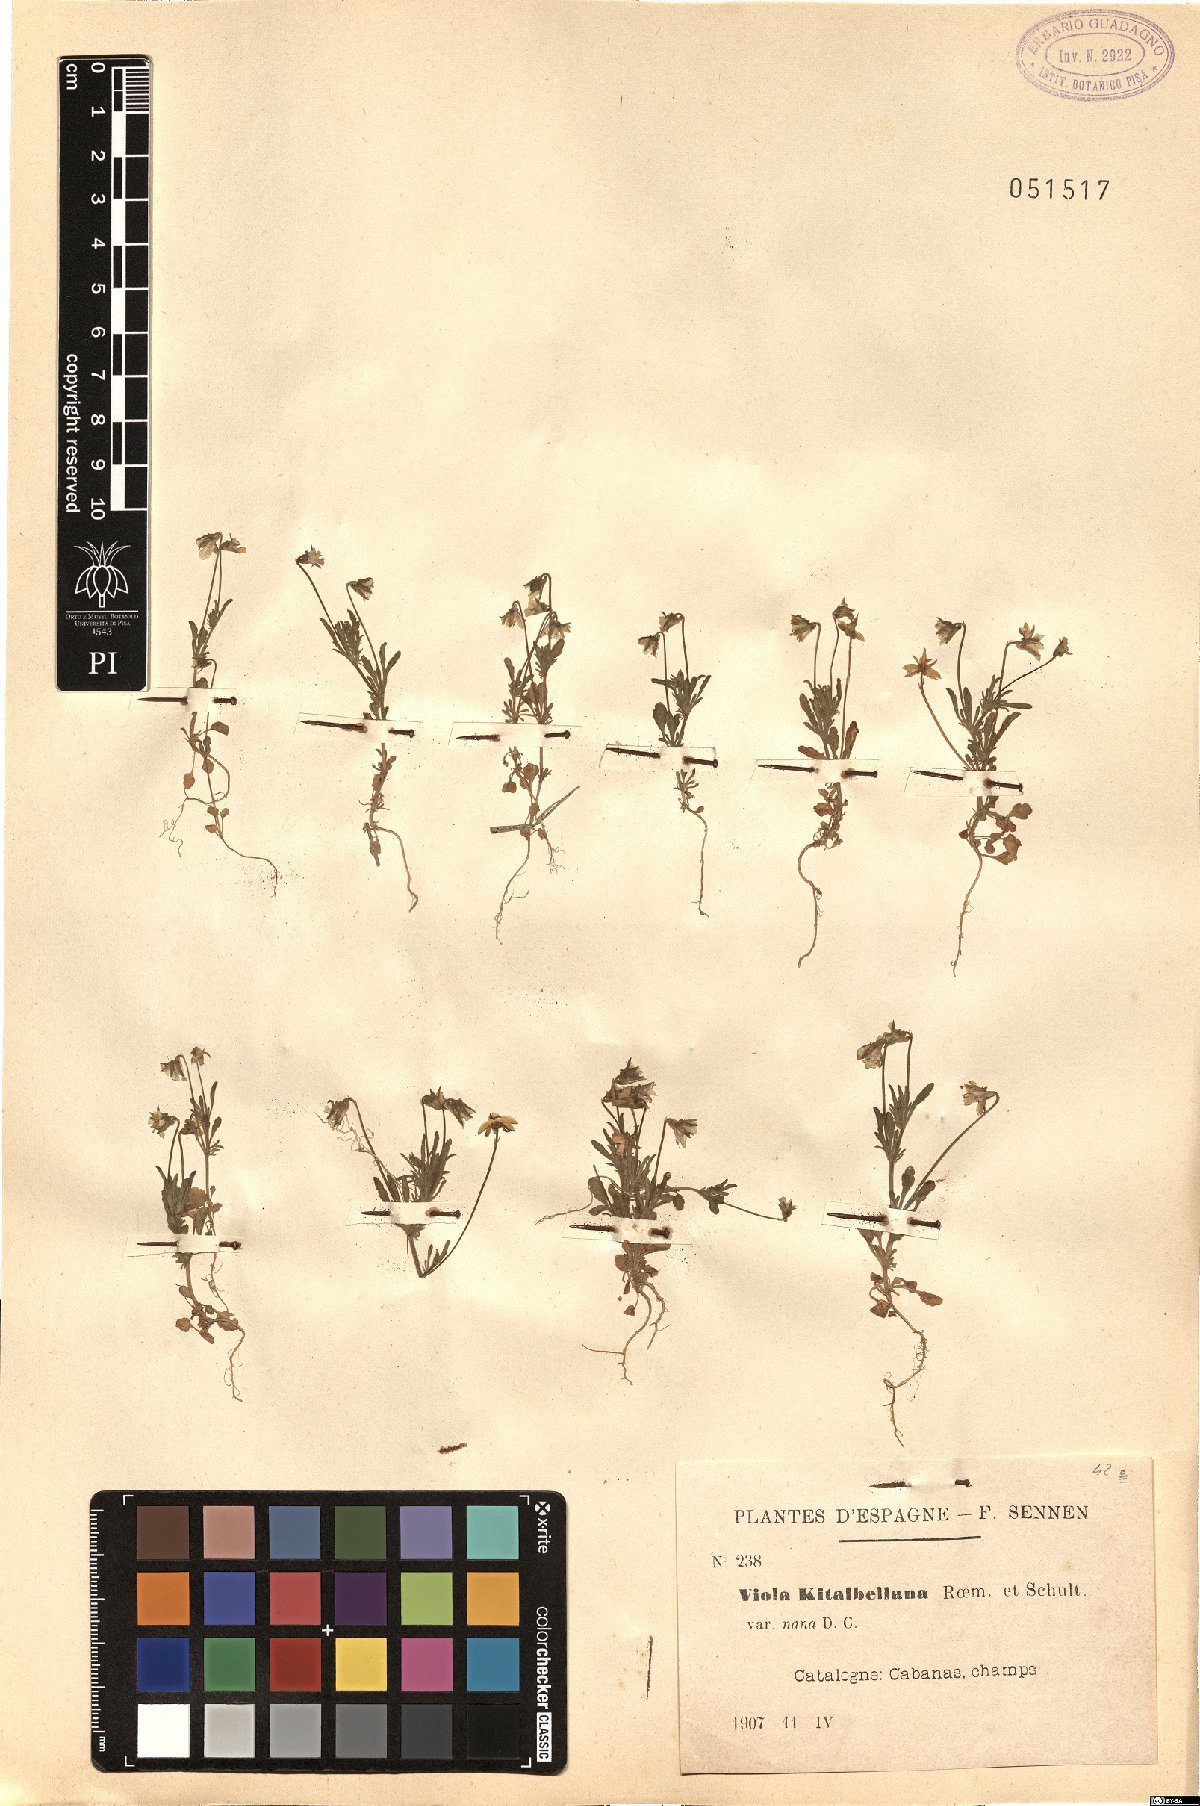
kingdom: Plantae
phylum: Tracheophyta
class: Magnoliopsida
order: Malpighiales
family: Violaceae
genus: Viola
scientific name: Viola nana
